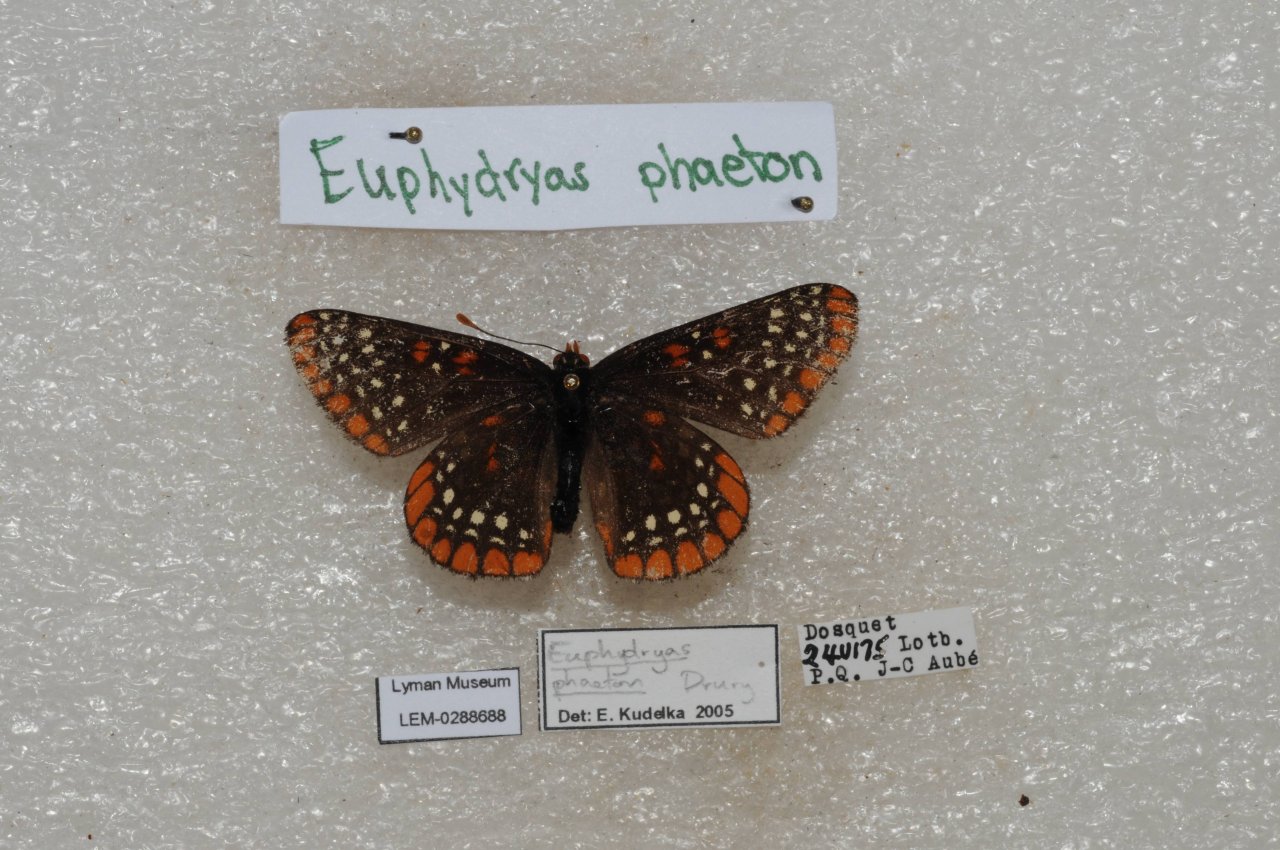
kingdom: Animalia
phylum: Arthropoda
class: Insecta
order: Lepidoptera
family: Nymphalidae
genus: Euphydryas
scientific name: Euphydryas phaeton
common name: Baltimore Checkerspot
